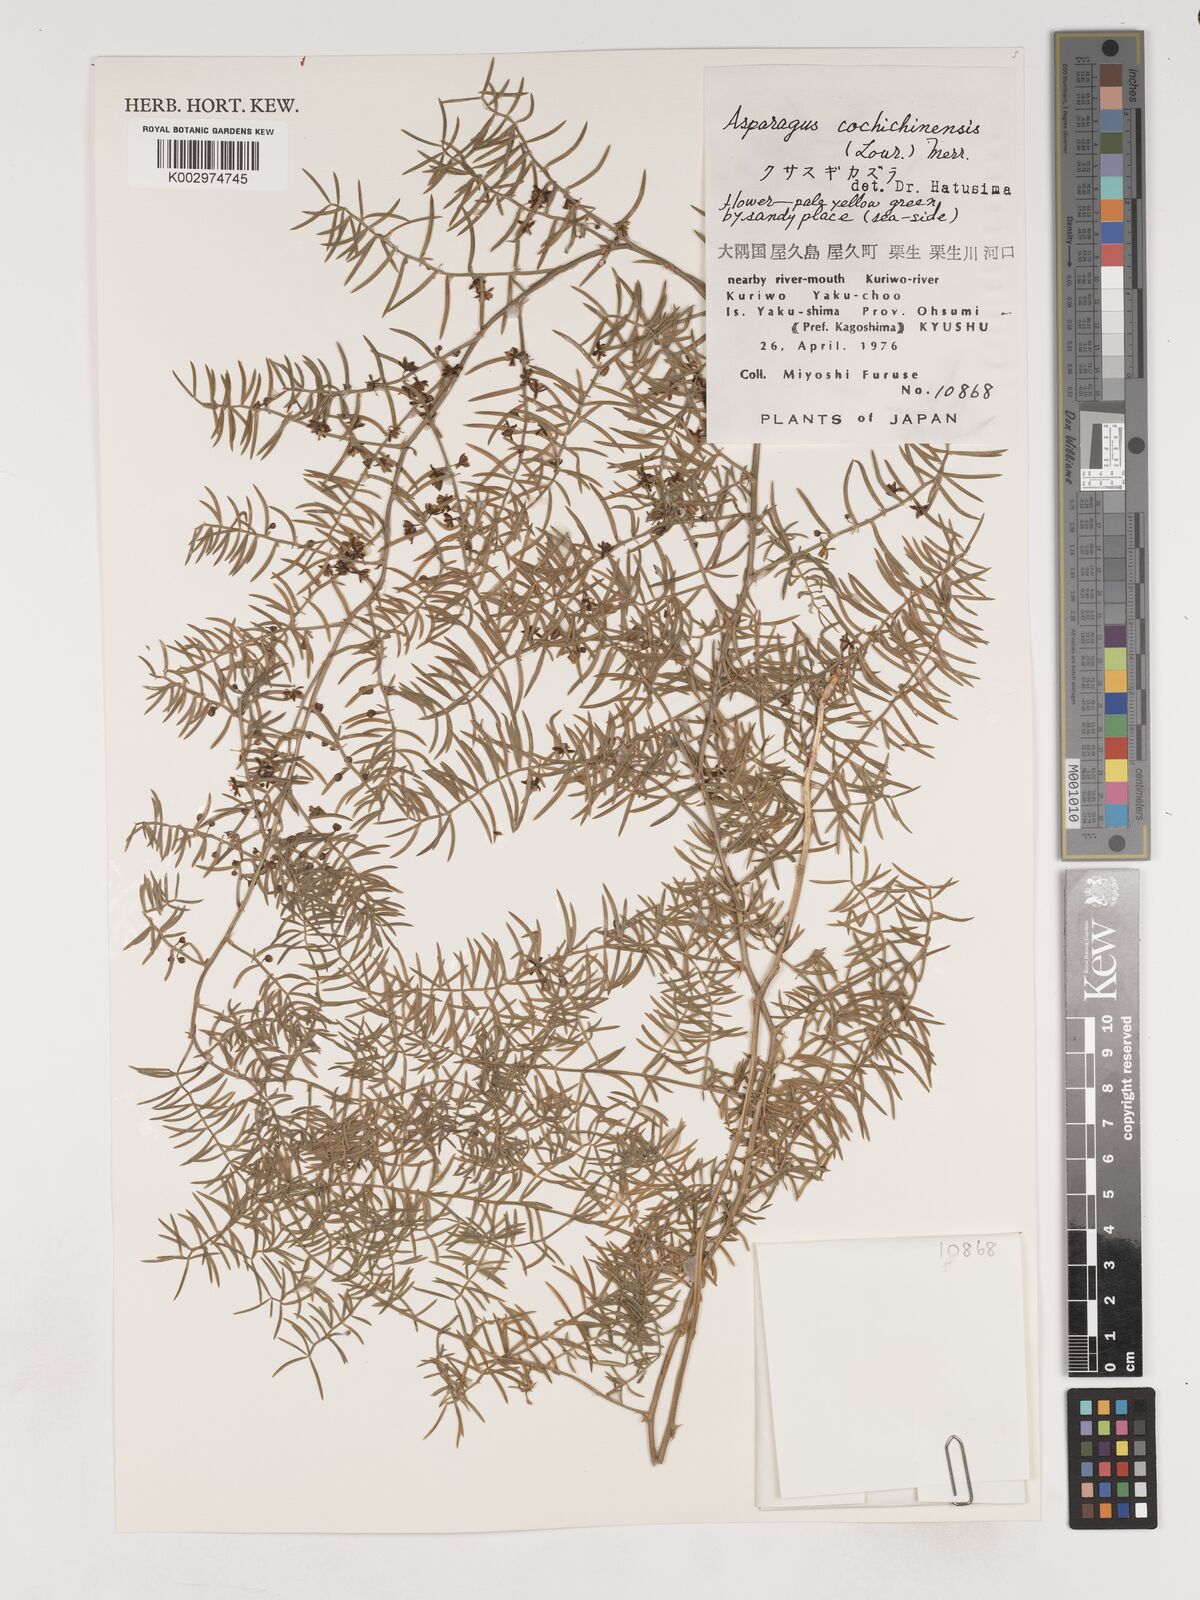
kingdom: Plantae
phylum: Tracheophyta
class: Liliopsida
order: Asparagales
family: Asparagaceae
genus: Asparagus
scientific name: Asparagus cochinchinensis
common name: Chinese asparagus
